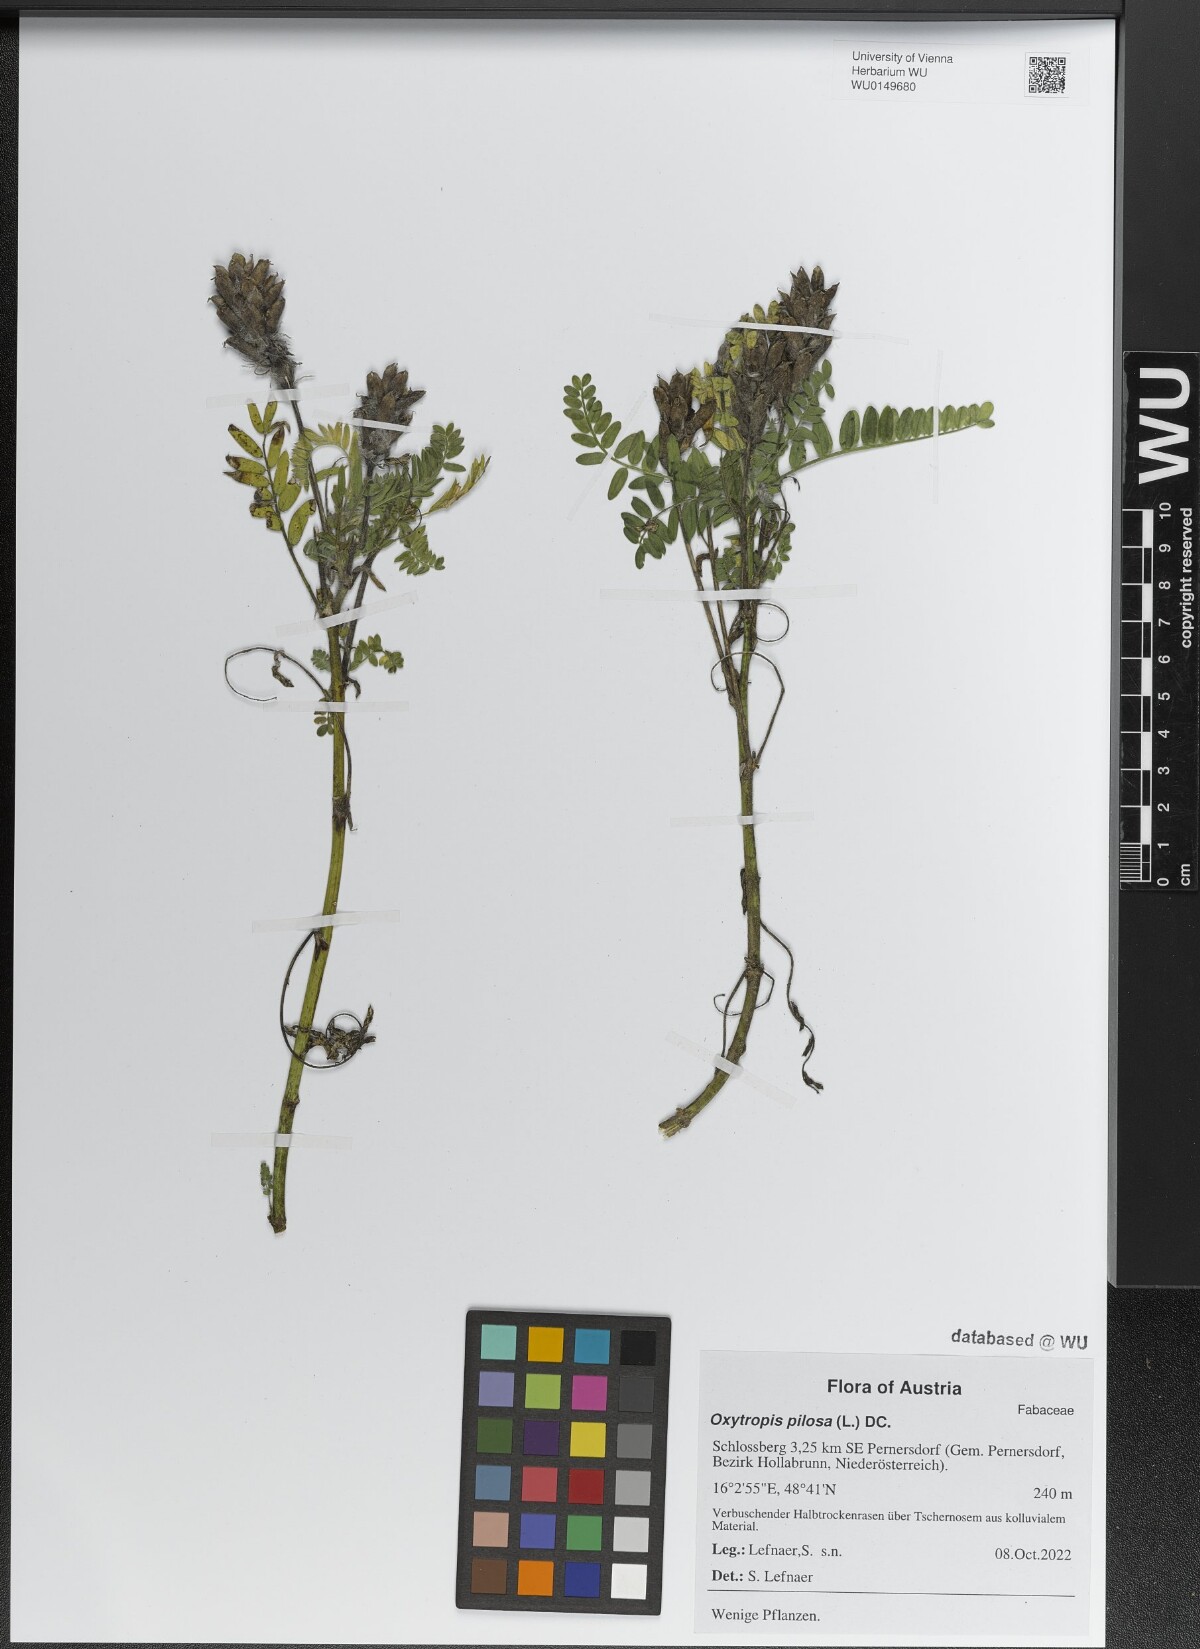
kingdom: Plantae
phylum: Tracheophyta
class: Magnoliopsida
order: Fabales
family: Fabaceae
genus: Oxytropis
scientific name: Oxytropis pilosa
